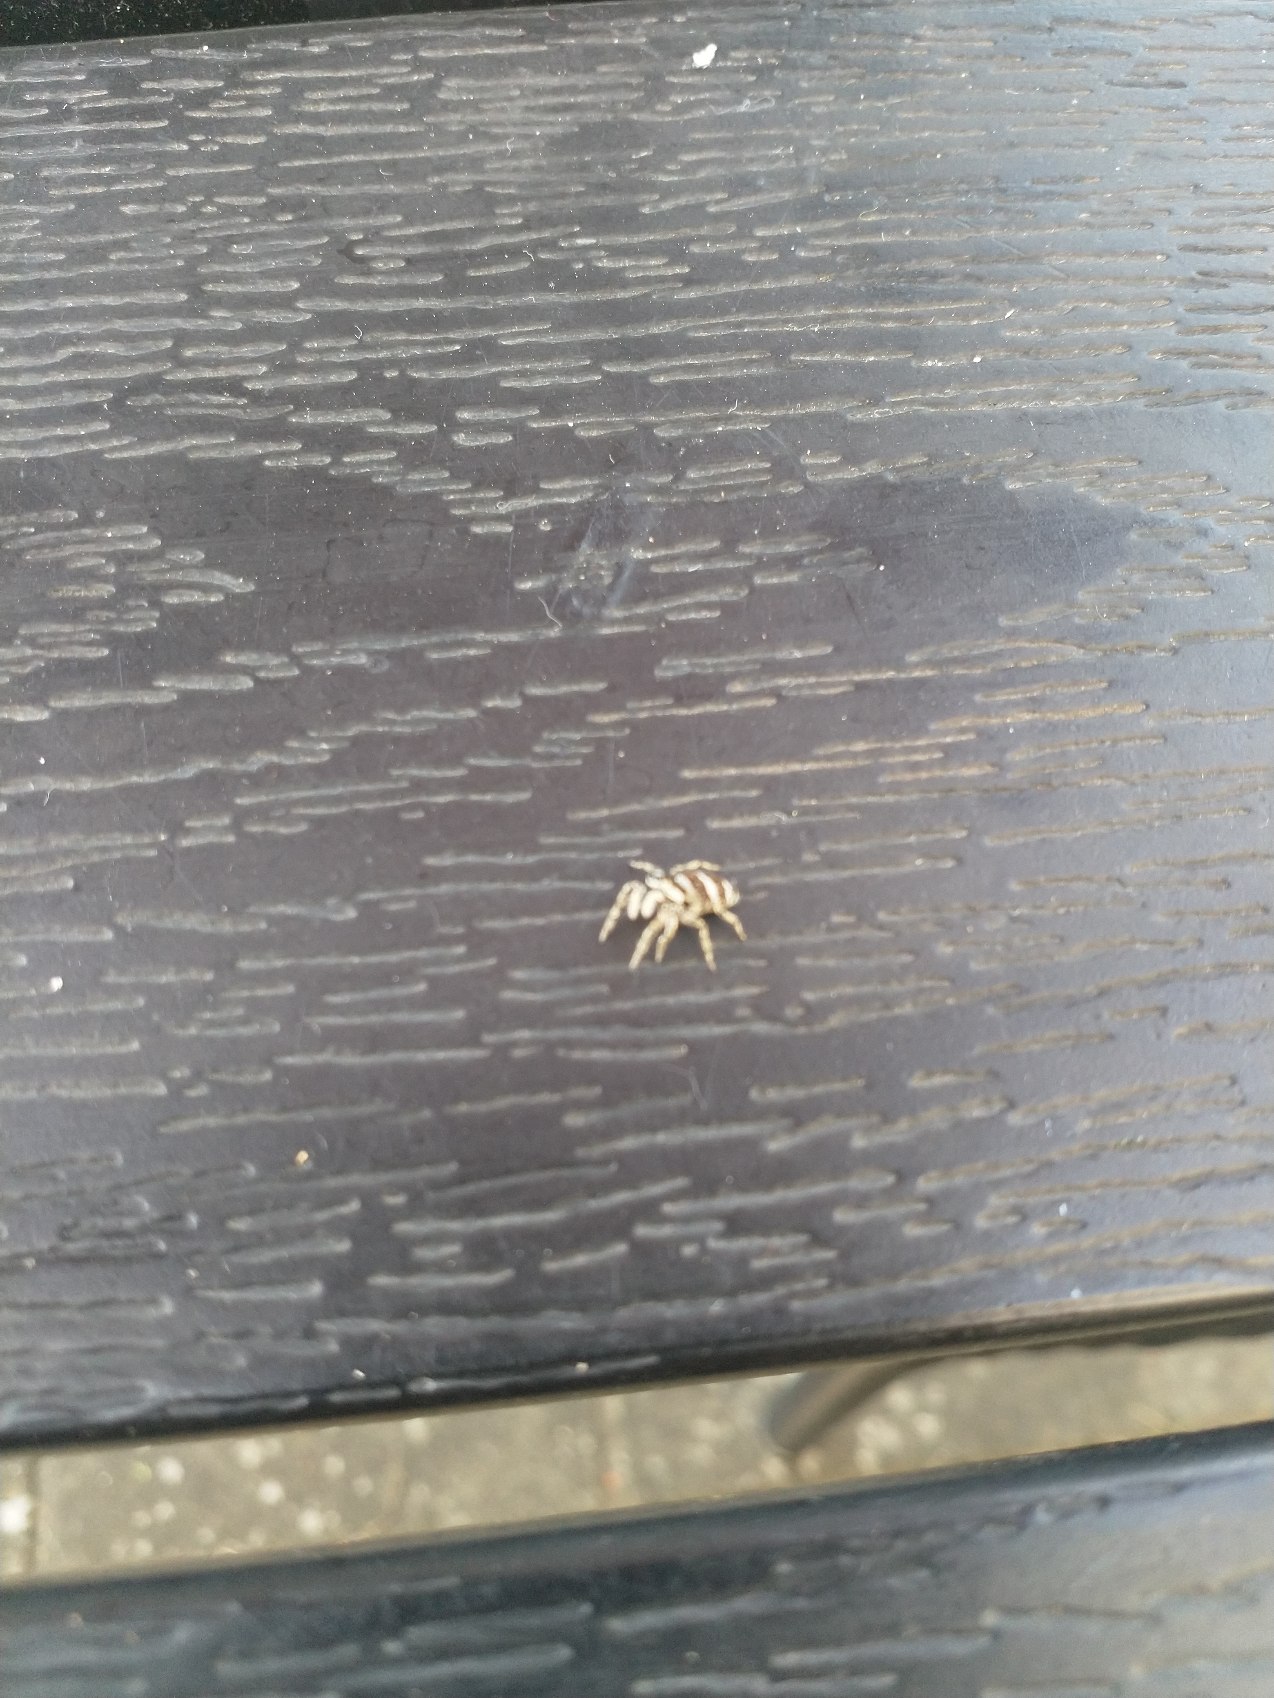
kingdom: Animalia
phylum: Arthropoda
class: Arachnida
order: Araneae
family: Salticidae
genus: Salticus
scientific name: Salticus scenicus
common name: Almindelig zebraedderkop
